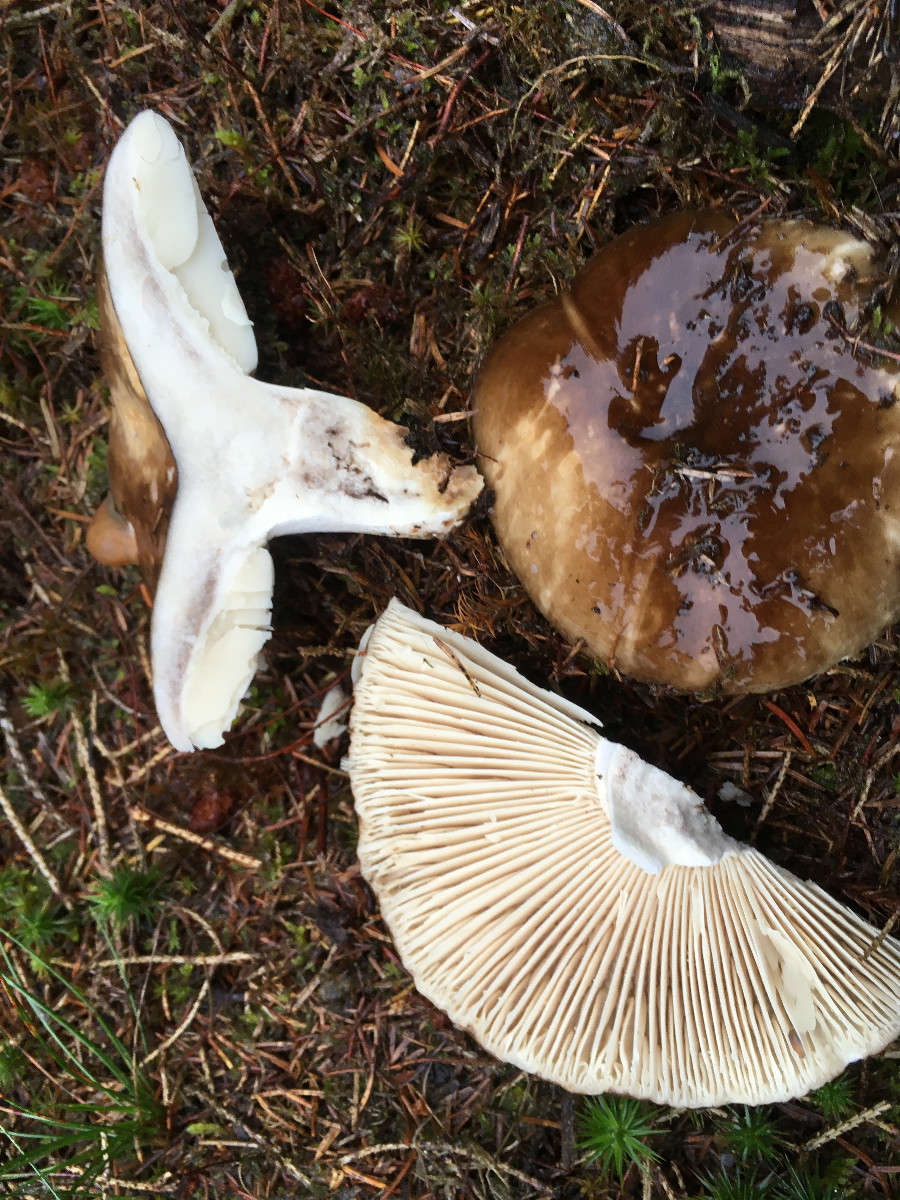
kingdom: Fungi
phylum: Basidiomycota
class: Agaricomycetes
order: Russulales
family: Russulaceae
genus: Russula
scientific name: Russula adusta
